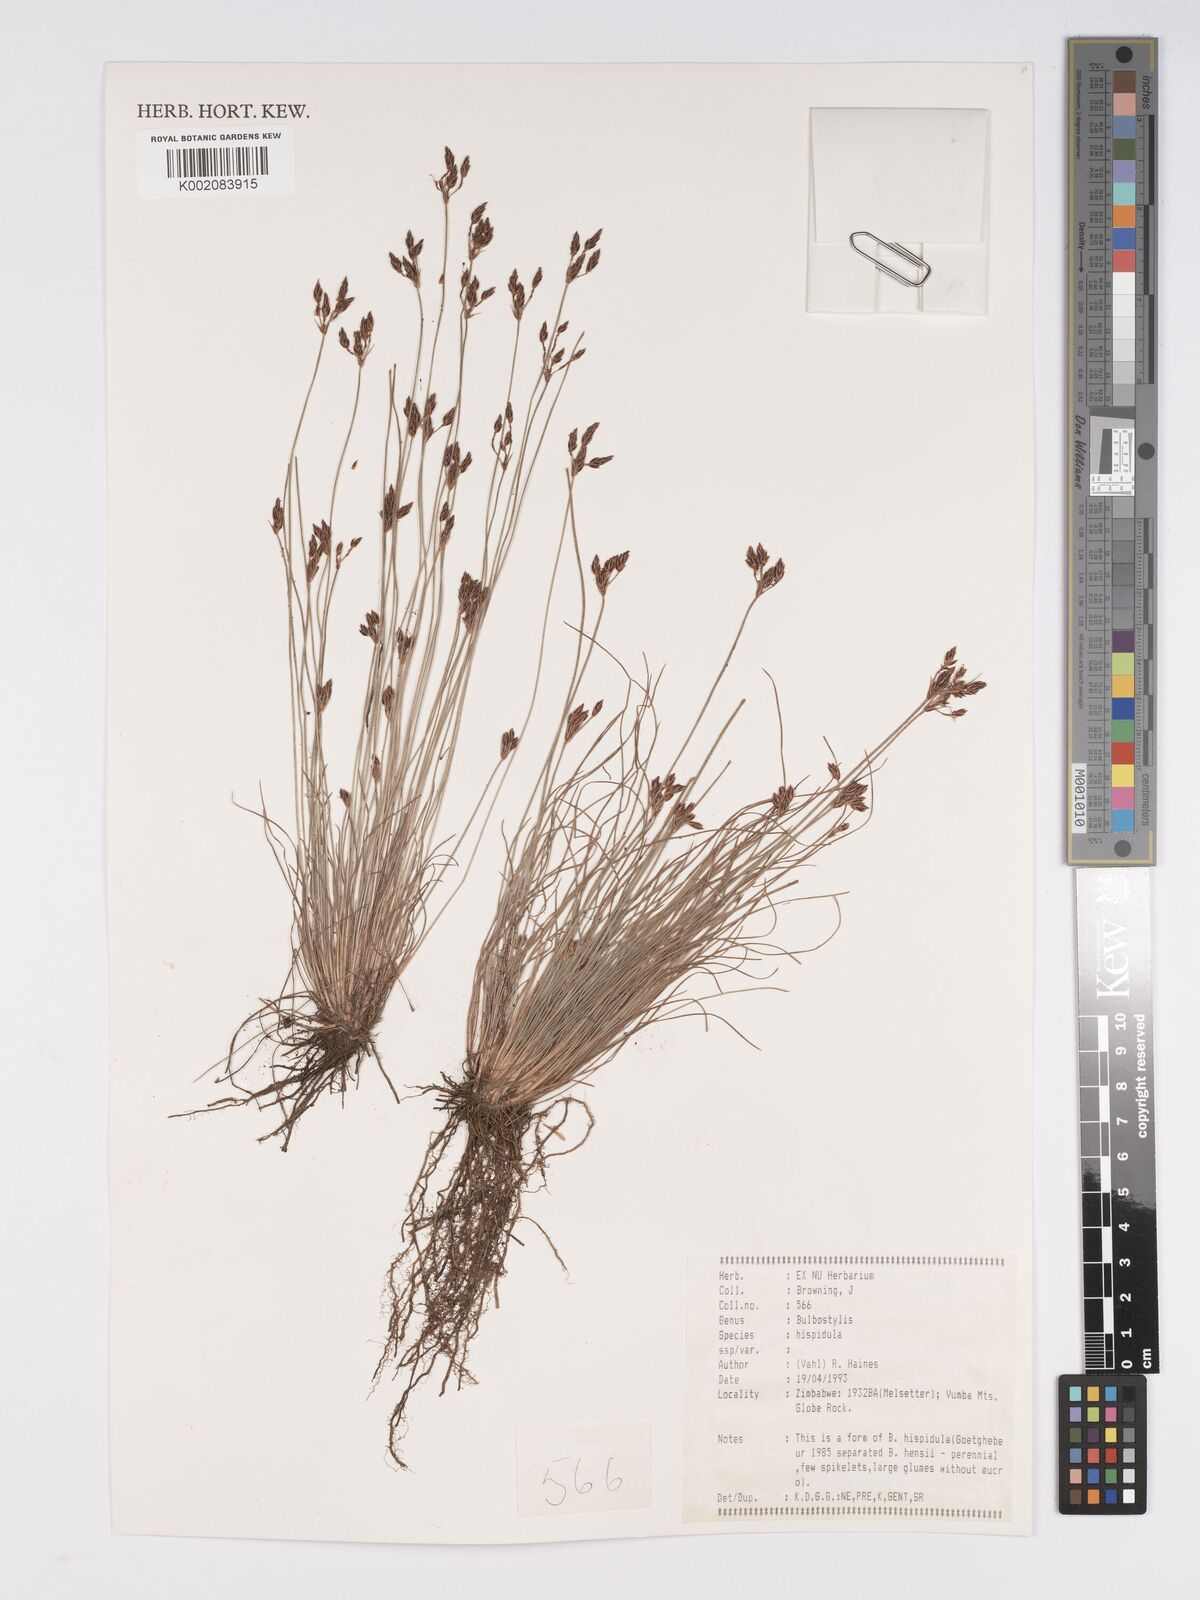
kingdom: Plantae
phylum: Tracheophyta
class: Liliopsida
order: Poales
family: Cyperaceae
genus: Bulbostylis
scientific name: Bulbostylis hispidula
